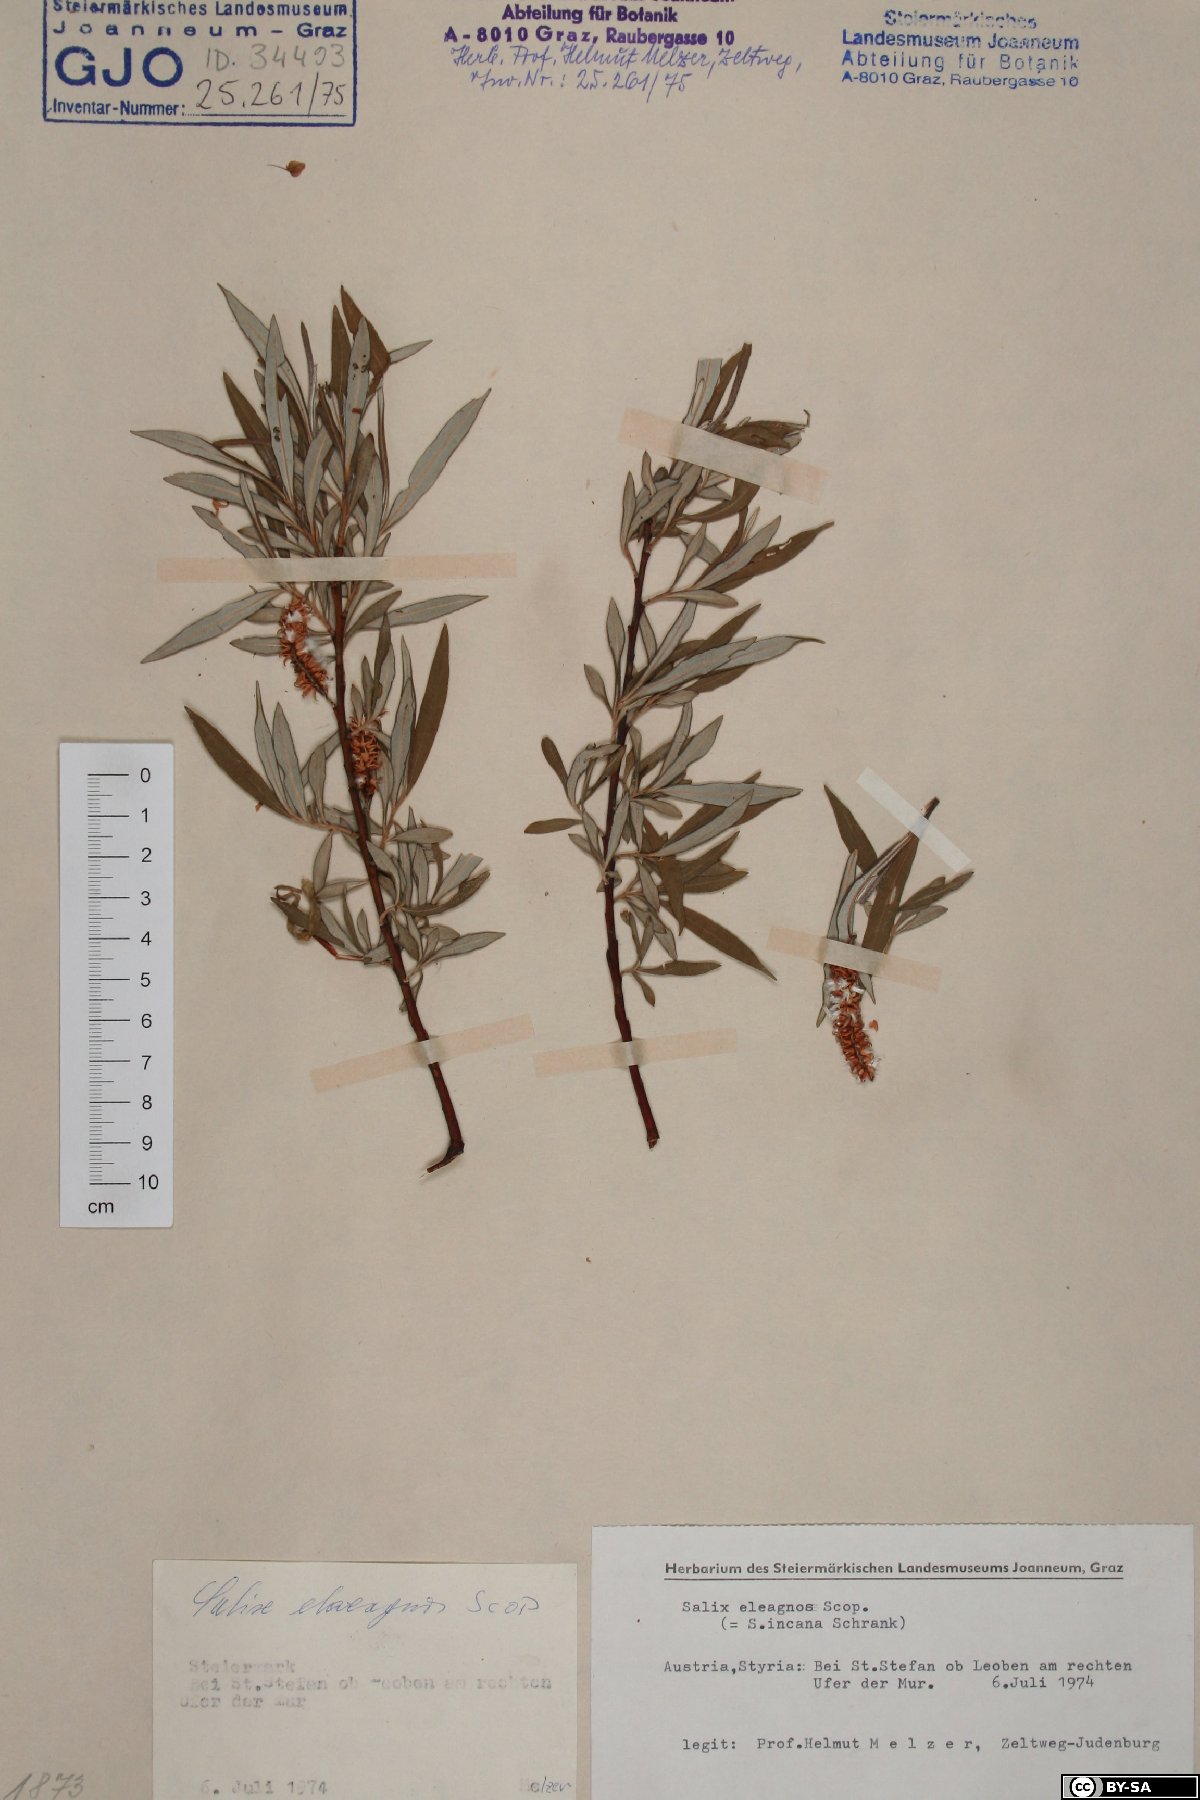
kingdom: Plantae
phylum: Tracheophyta
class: Magnoliopsida
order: Malpighiales
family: Salicaceae
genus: Salix
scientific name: Salix eleagnos
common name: Elaeagnus willow
